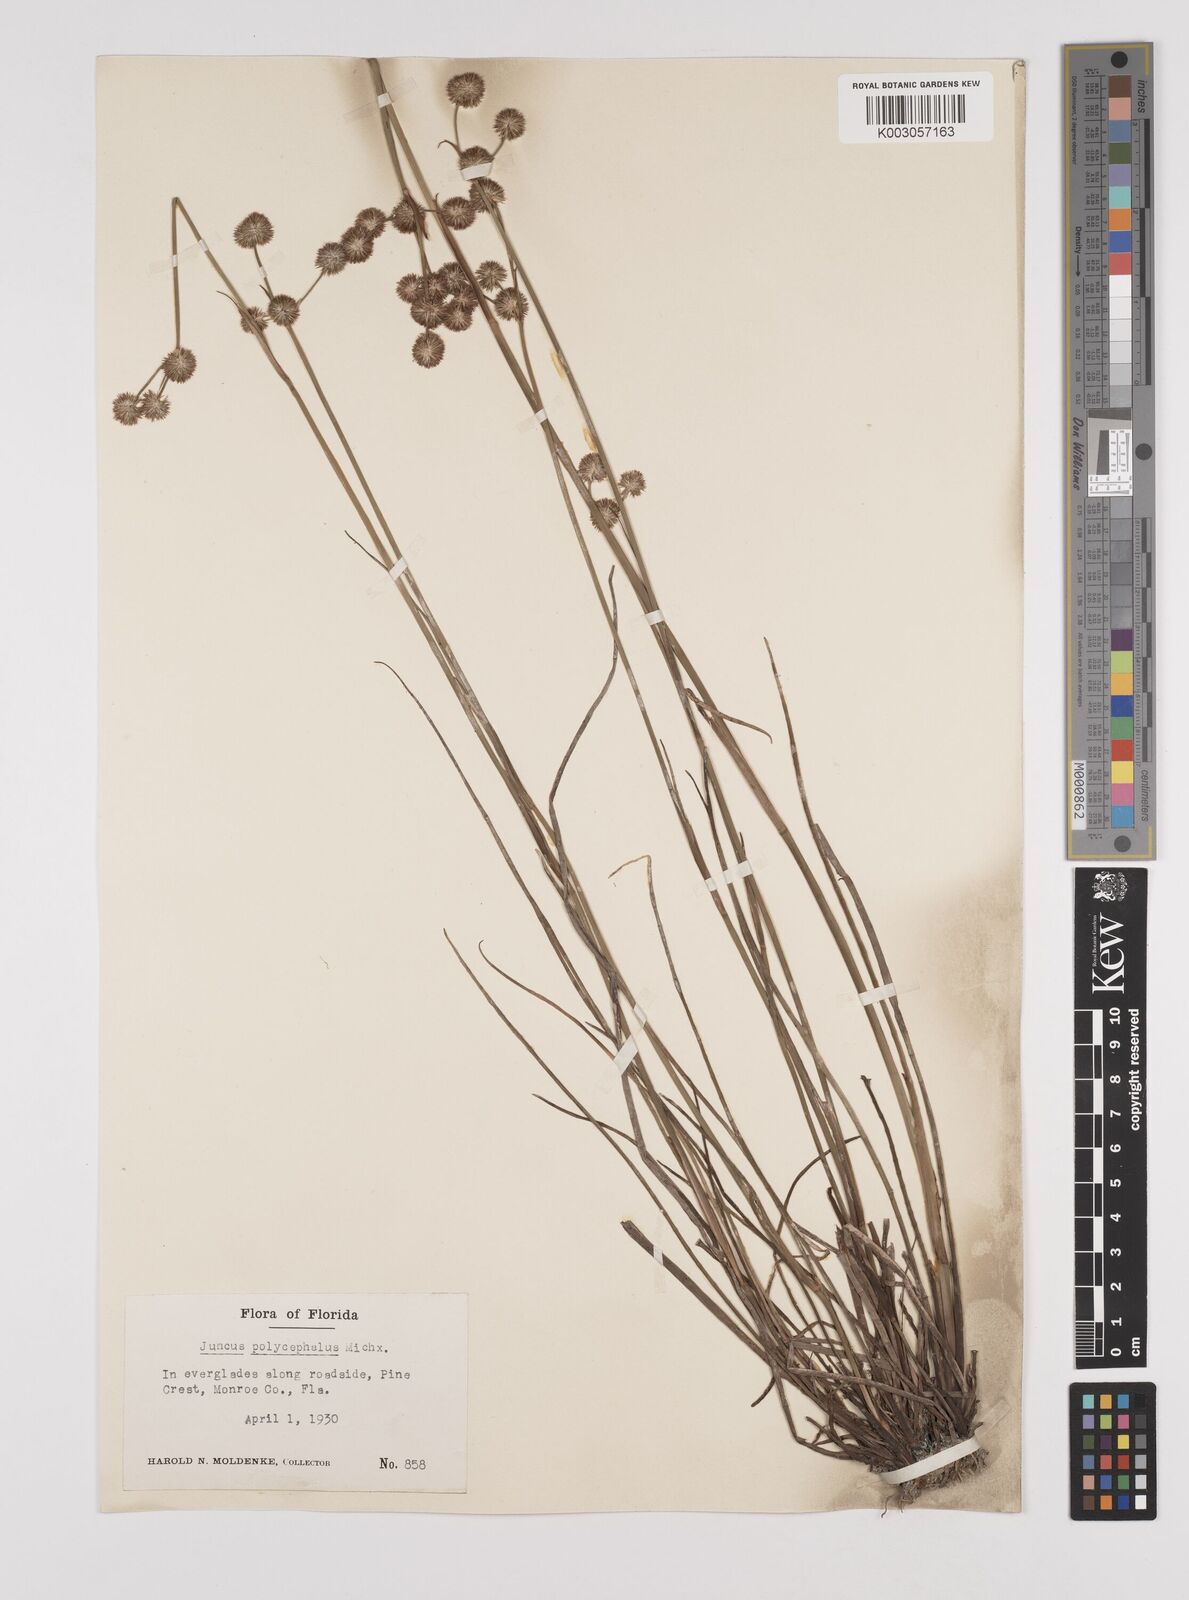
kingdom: Plantae
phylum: Tracheophyta
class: Liliopsida
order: Poales
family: Juncaceae
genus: Juncus
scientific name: Juncus articulatus
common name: Jointed rush
